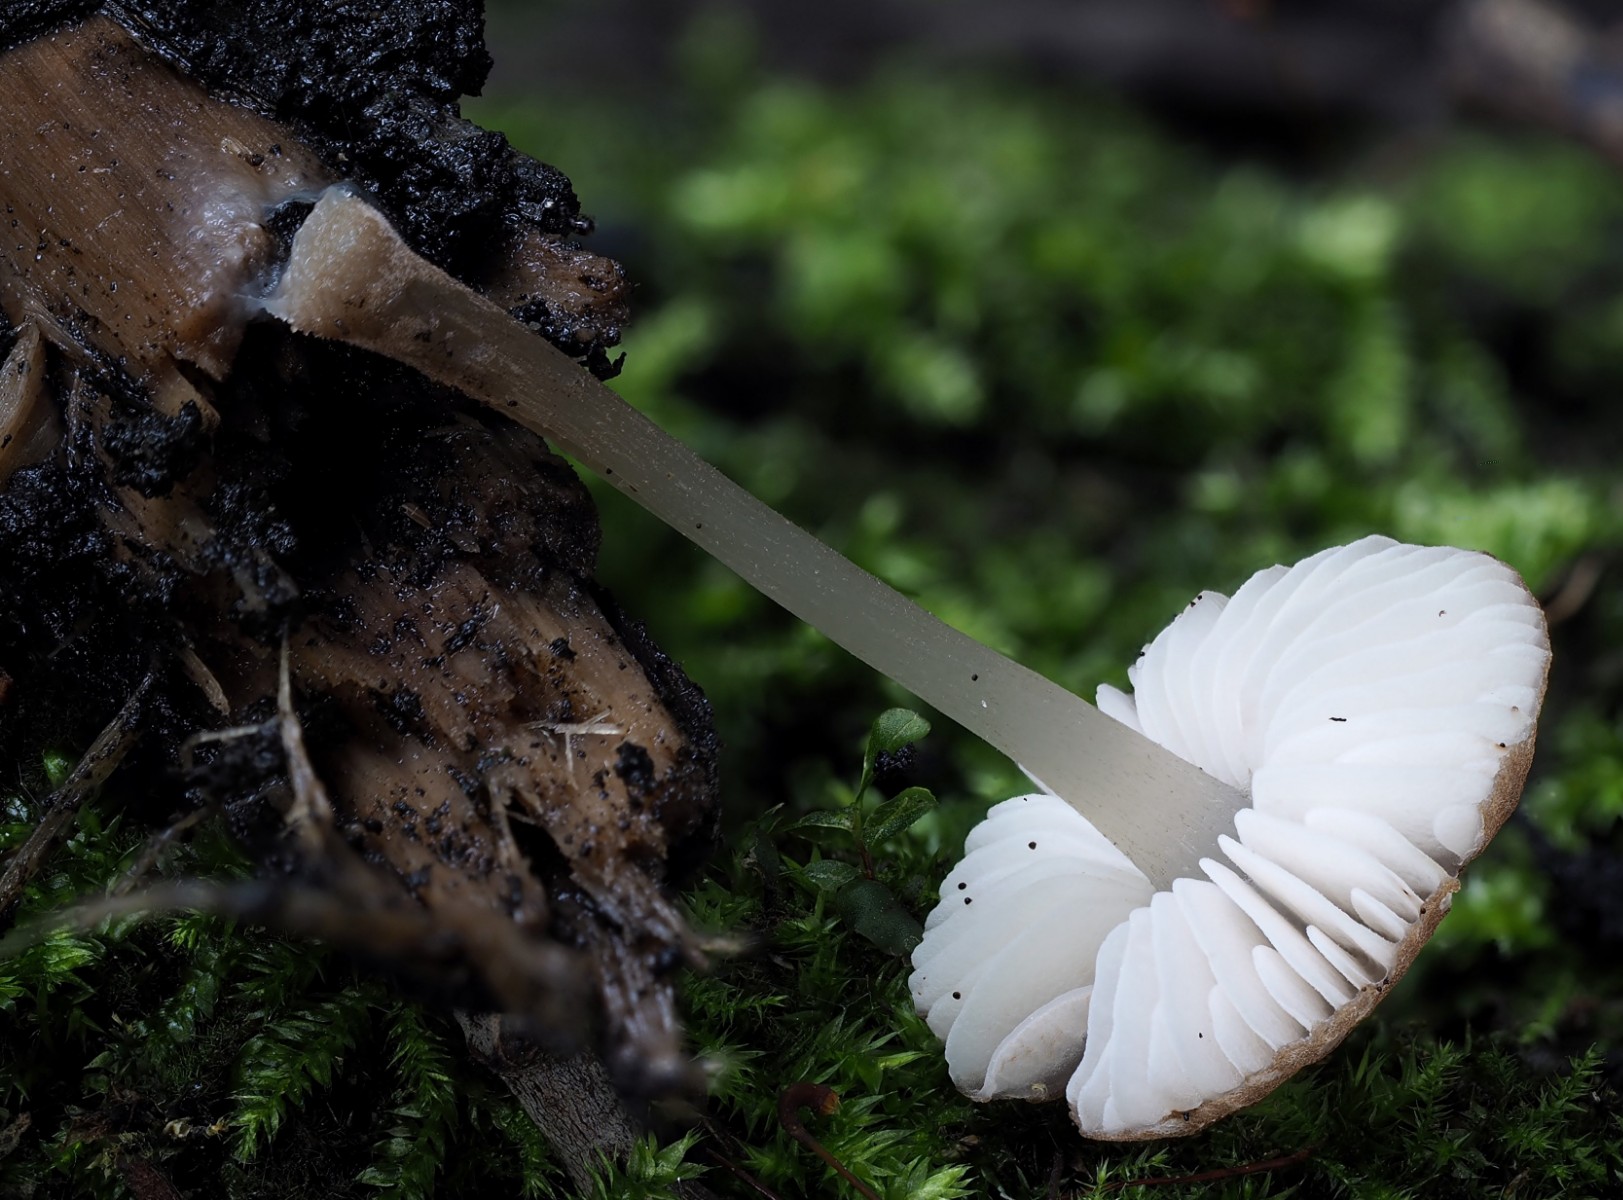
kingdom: Fungi
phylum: Basidiomycota
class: Agaricomycetes
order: Agaricales
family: Pluteaceae
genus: Pluteus
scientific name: Pluteus
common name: pudret skærmhat
